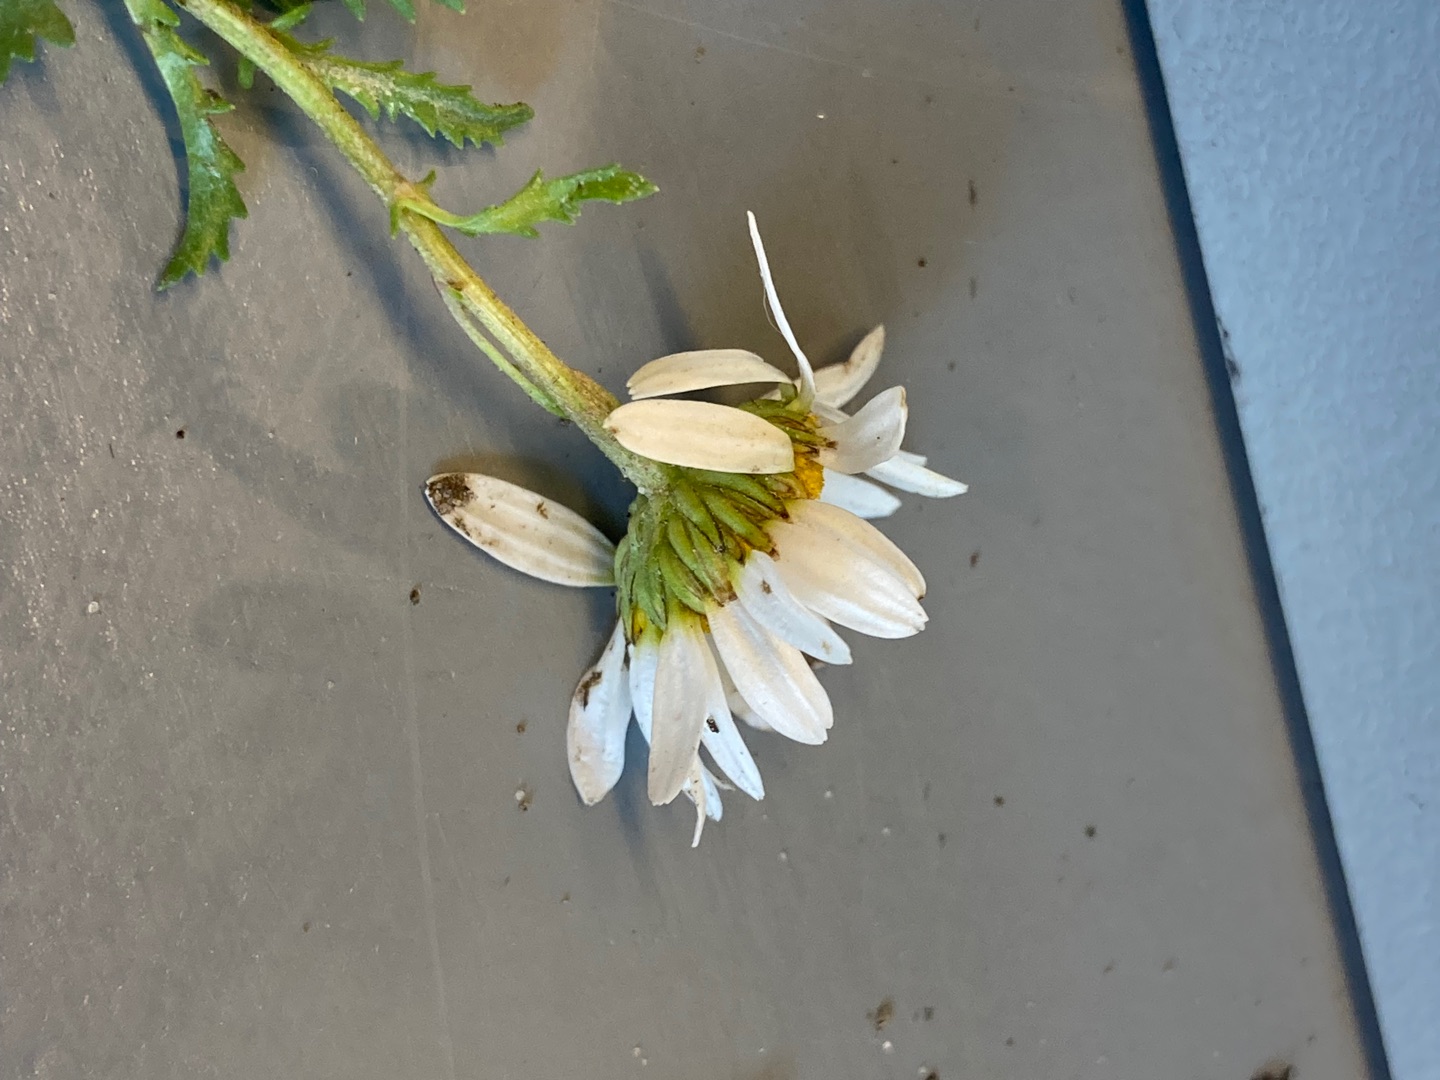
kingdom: Plantae
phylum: Tracheophyta
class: Magnoliopsida
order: Asterales
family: Asteraceae
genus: Leucanthemum
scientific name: Leucanthemum vulgare
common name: Hvid okseøje
